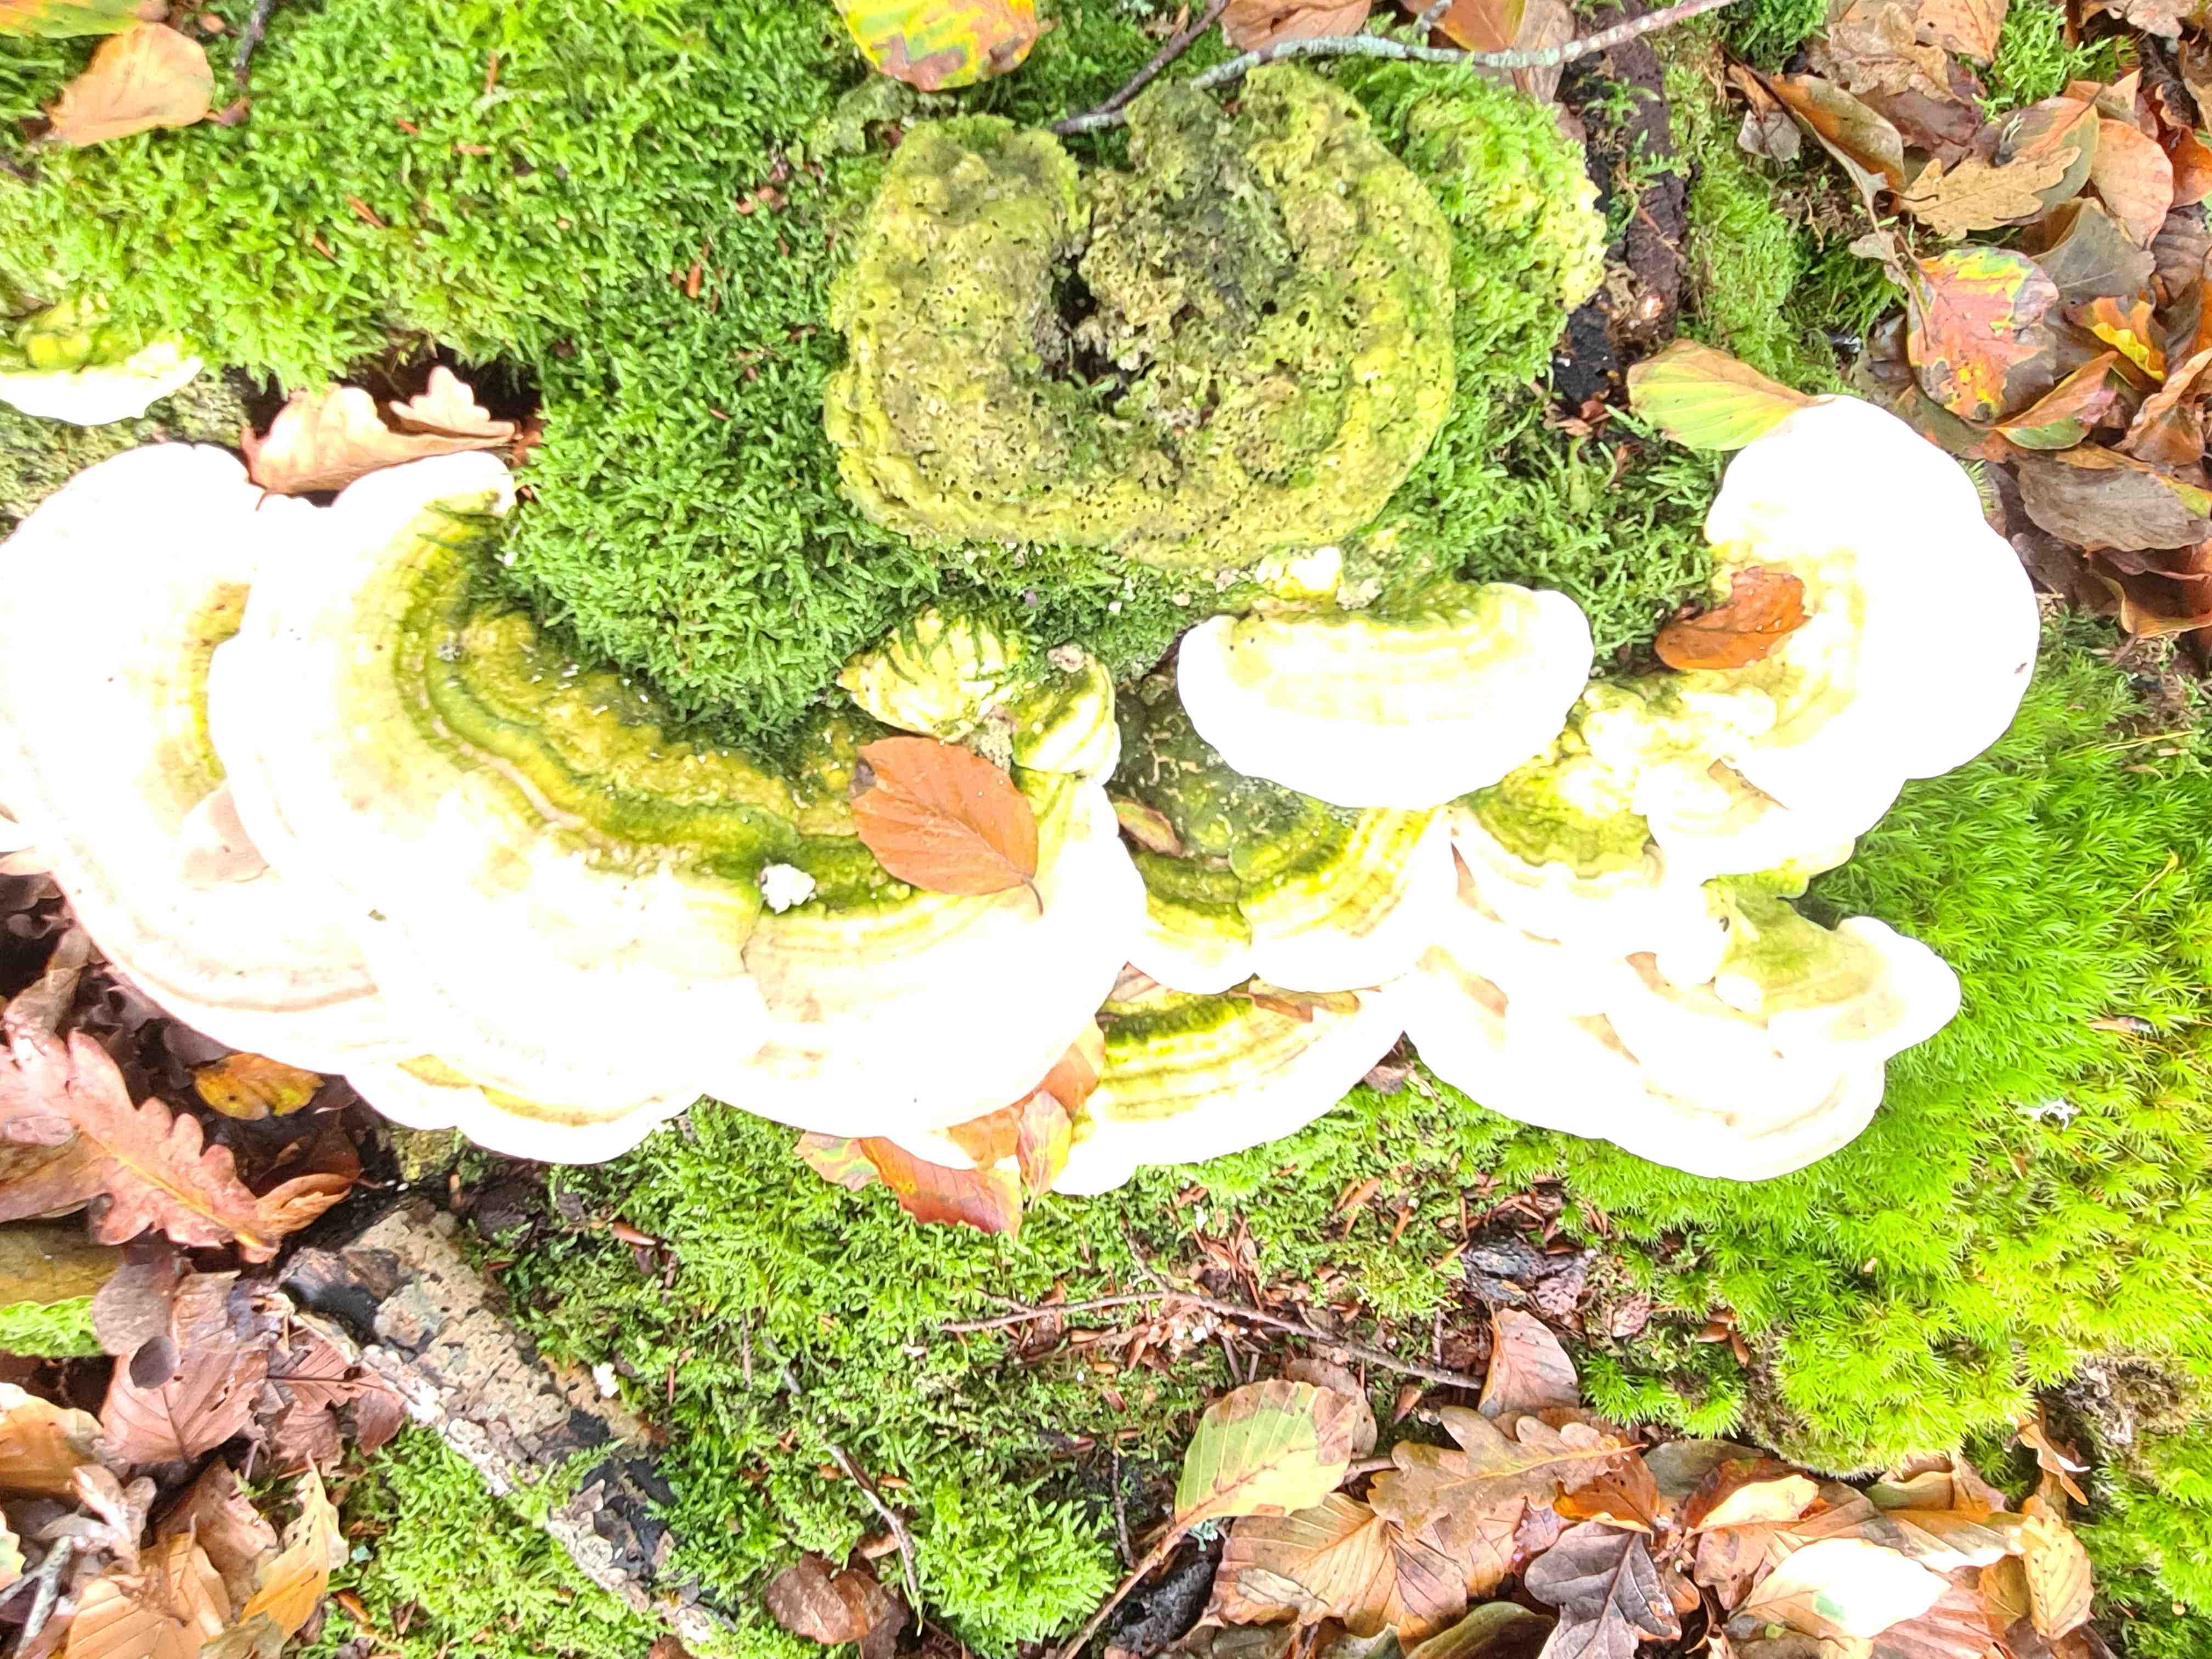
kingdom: Fungi
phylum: Basidiomycota
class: Agaricomycetes
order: Polyporales
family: Polyporaceae
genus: Trametes
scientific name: Trametes gibbosa
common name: puklet læderporesvamp
